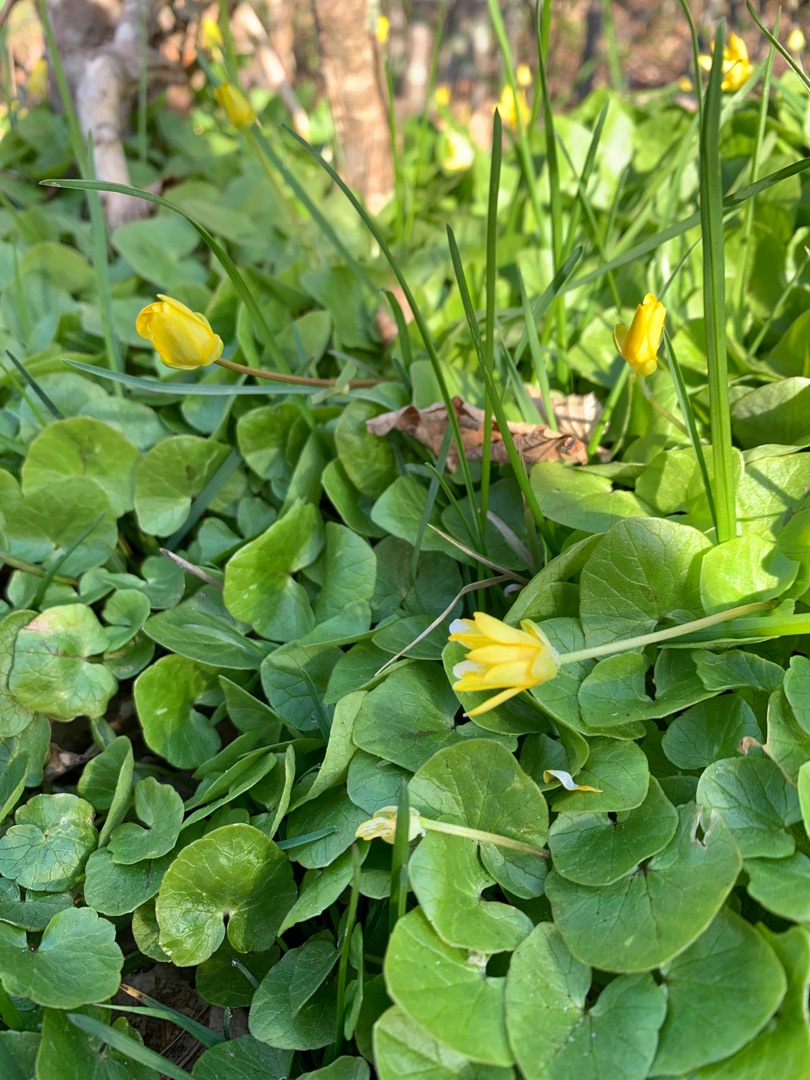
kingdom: Plantae
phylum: Tracheophyta
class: Magnoliopsida
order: Ranunculales
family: Ranunculaceae
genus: Ficaria
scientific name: Ficaria verna
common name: Vorterod
